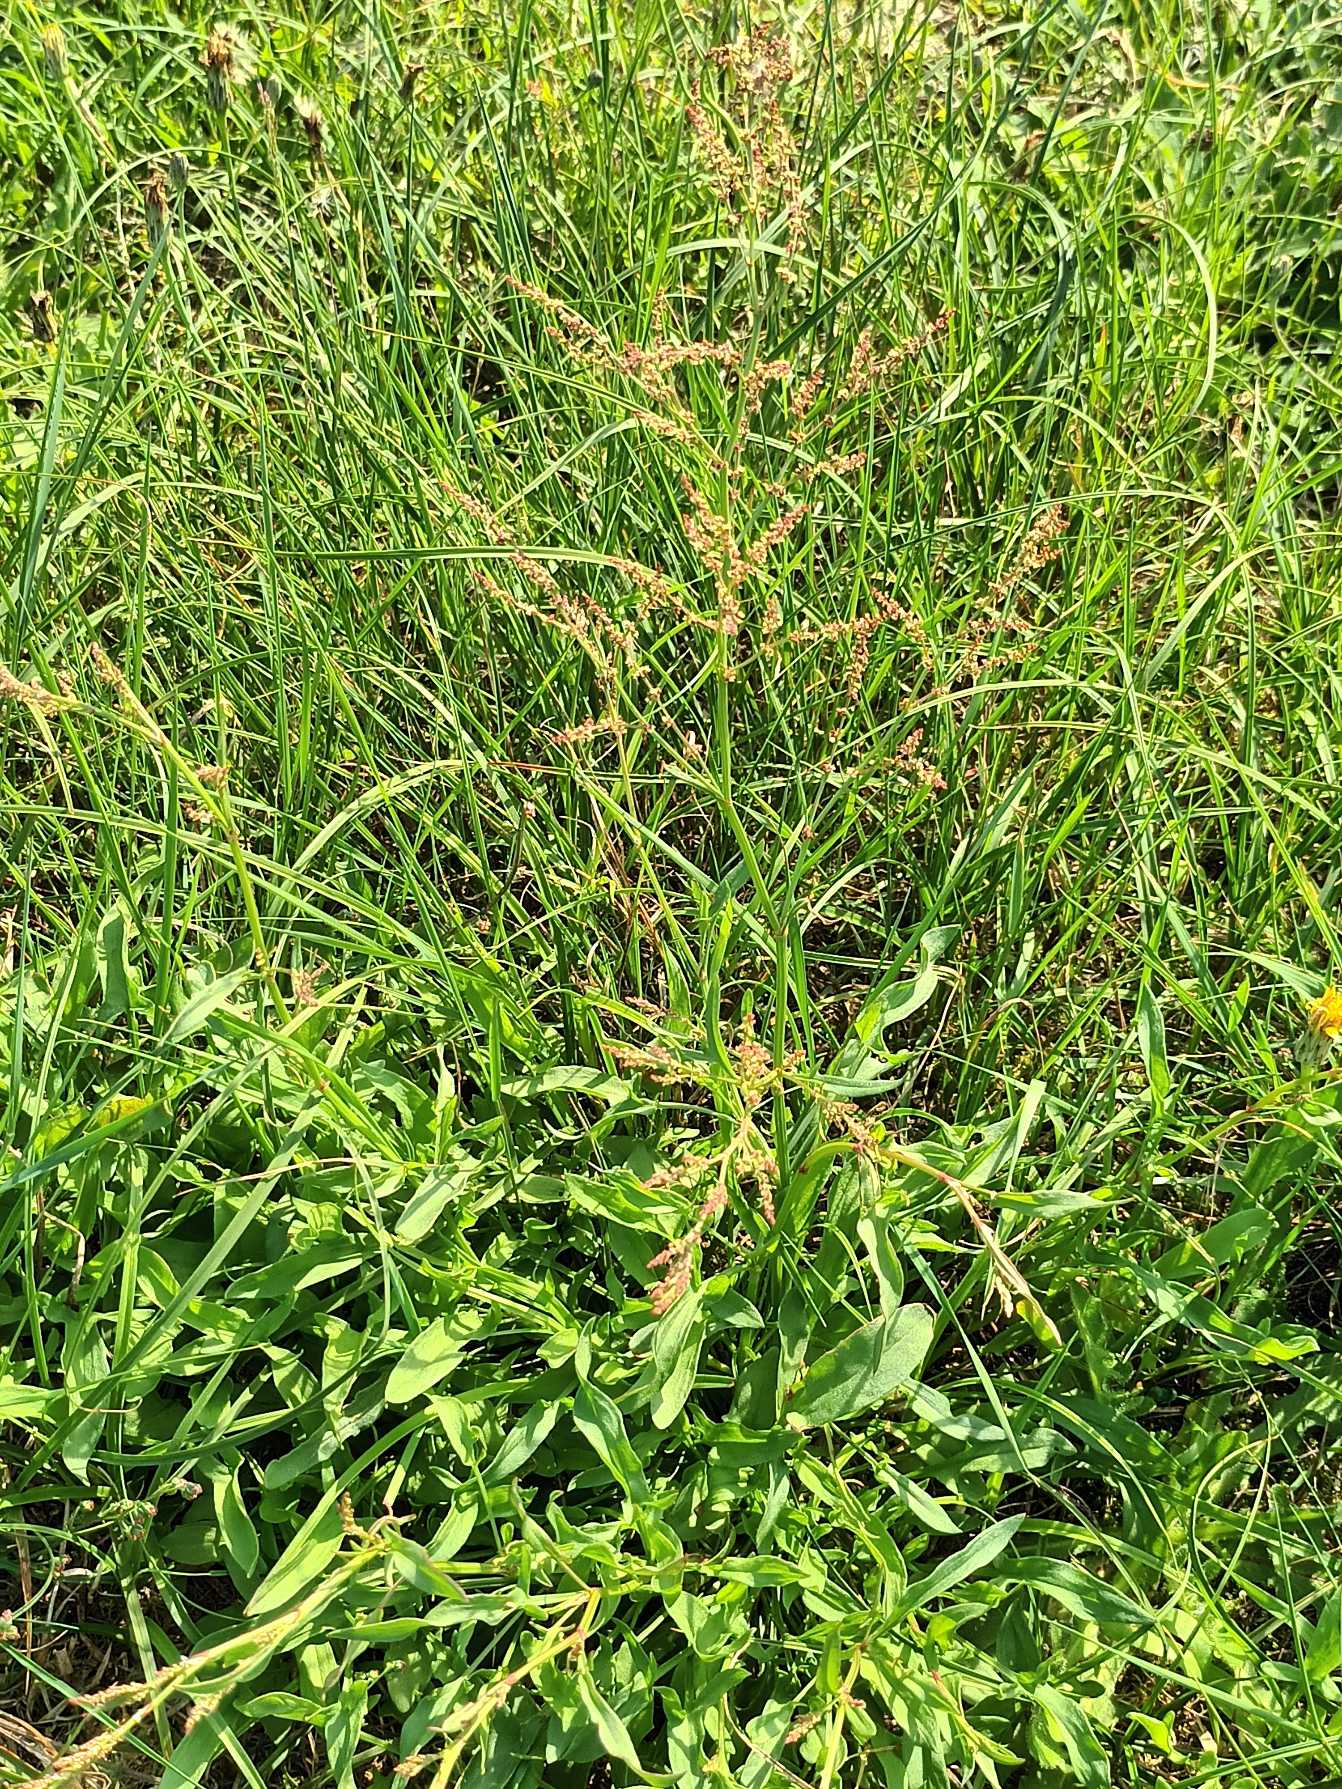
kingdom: Plantae
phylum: Tracheophyta
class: Magnoliopsida
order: Caryophyllales
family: Polygonaceae
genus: Rumex
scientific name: Rumex acetosella
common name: Rødknæ
